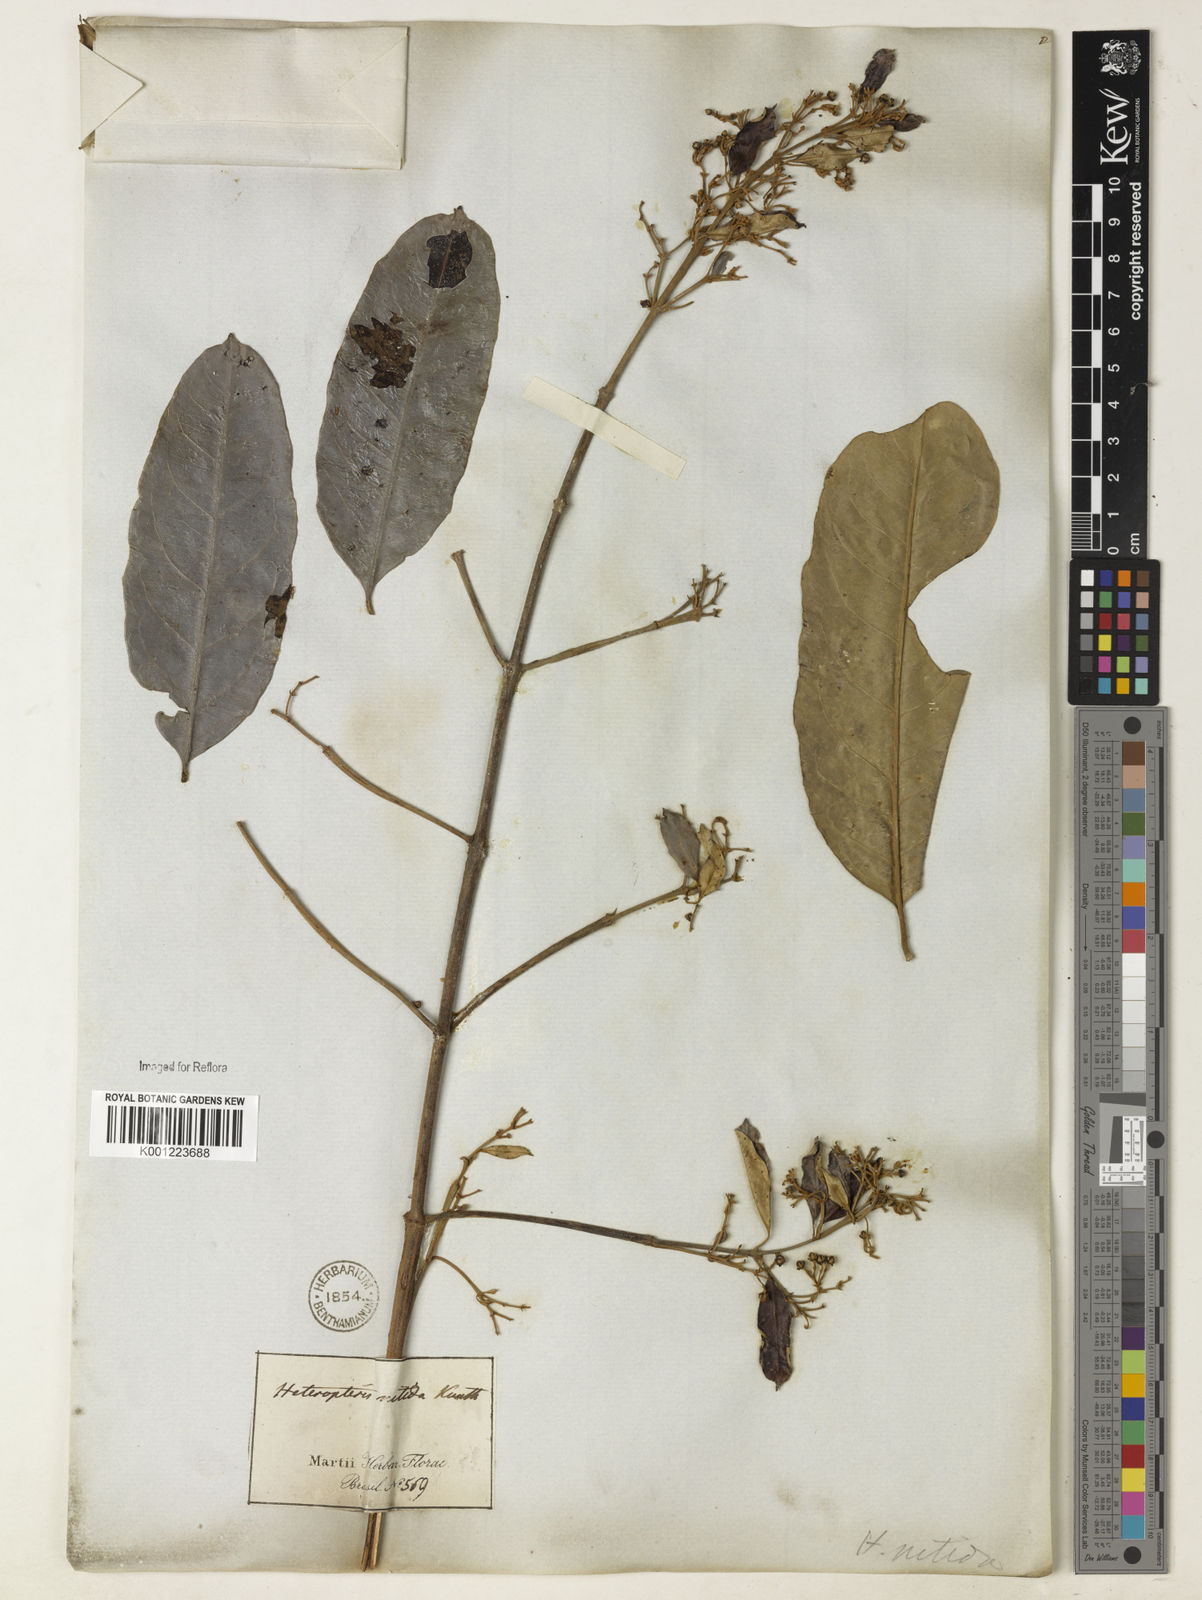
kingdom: Plantae
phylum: Tracheophyta
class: Magnoliopsida
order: Malpighiales
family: Malpighiaceae
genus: Heteropterys
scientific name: Heteropterys nitida
